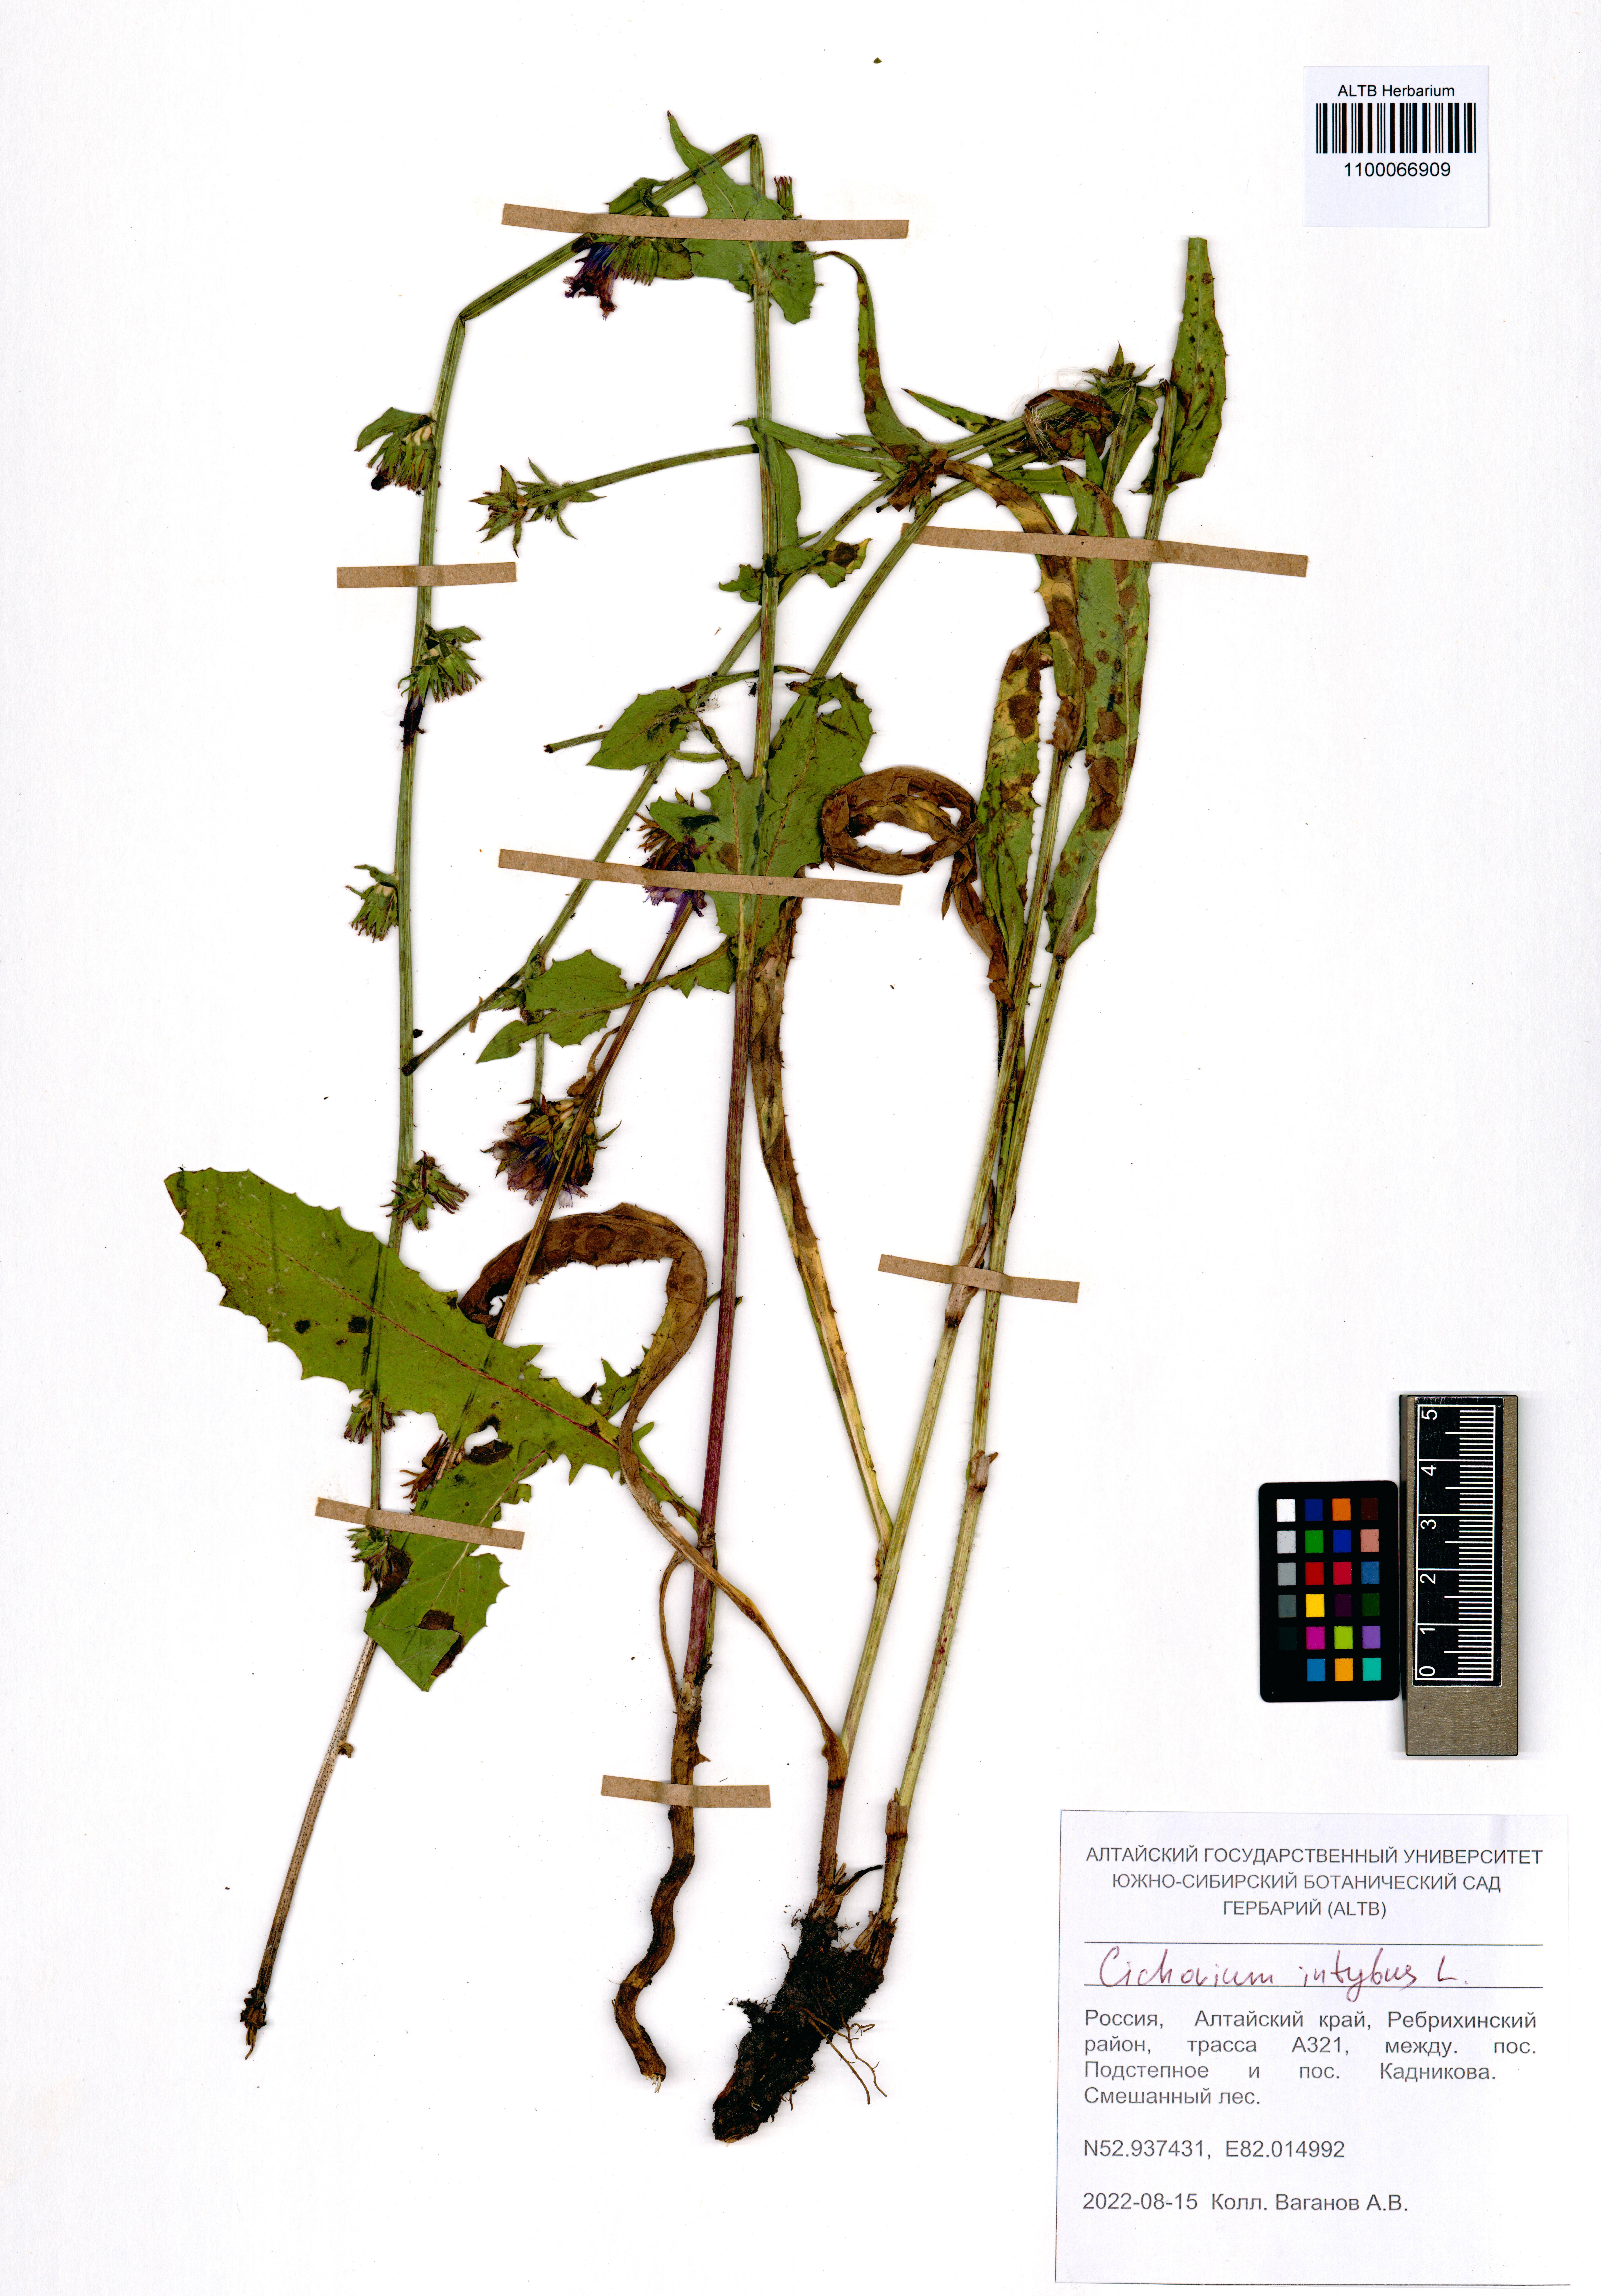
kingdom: Plantae
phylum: Tracheophyta
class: Magnoliopsida
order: Asterales
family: Asteraceae
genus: Cichorium
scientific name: Cichorium intybus
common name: Chicory
